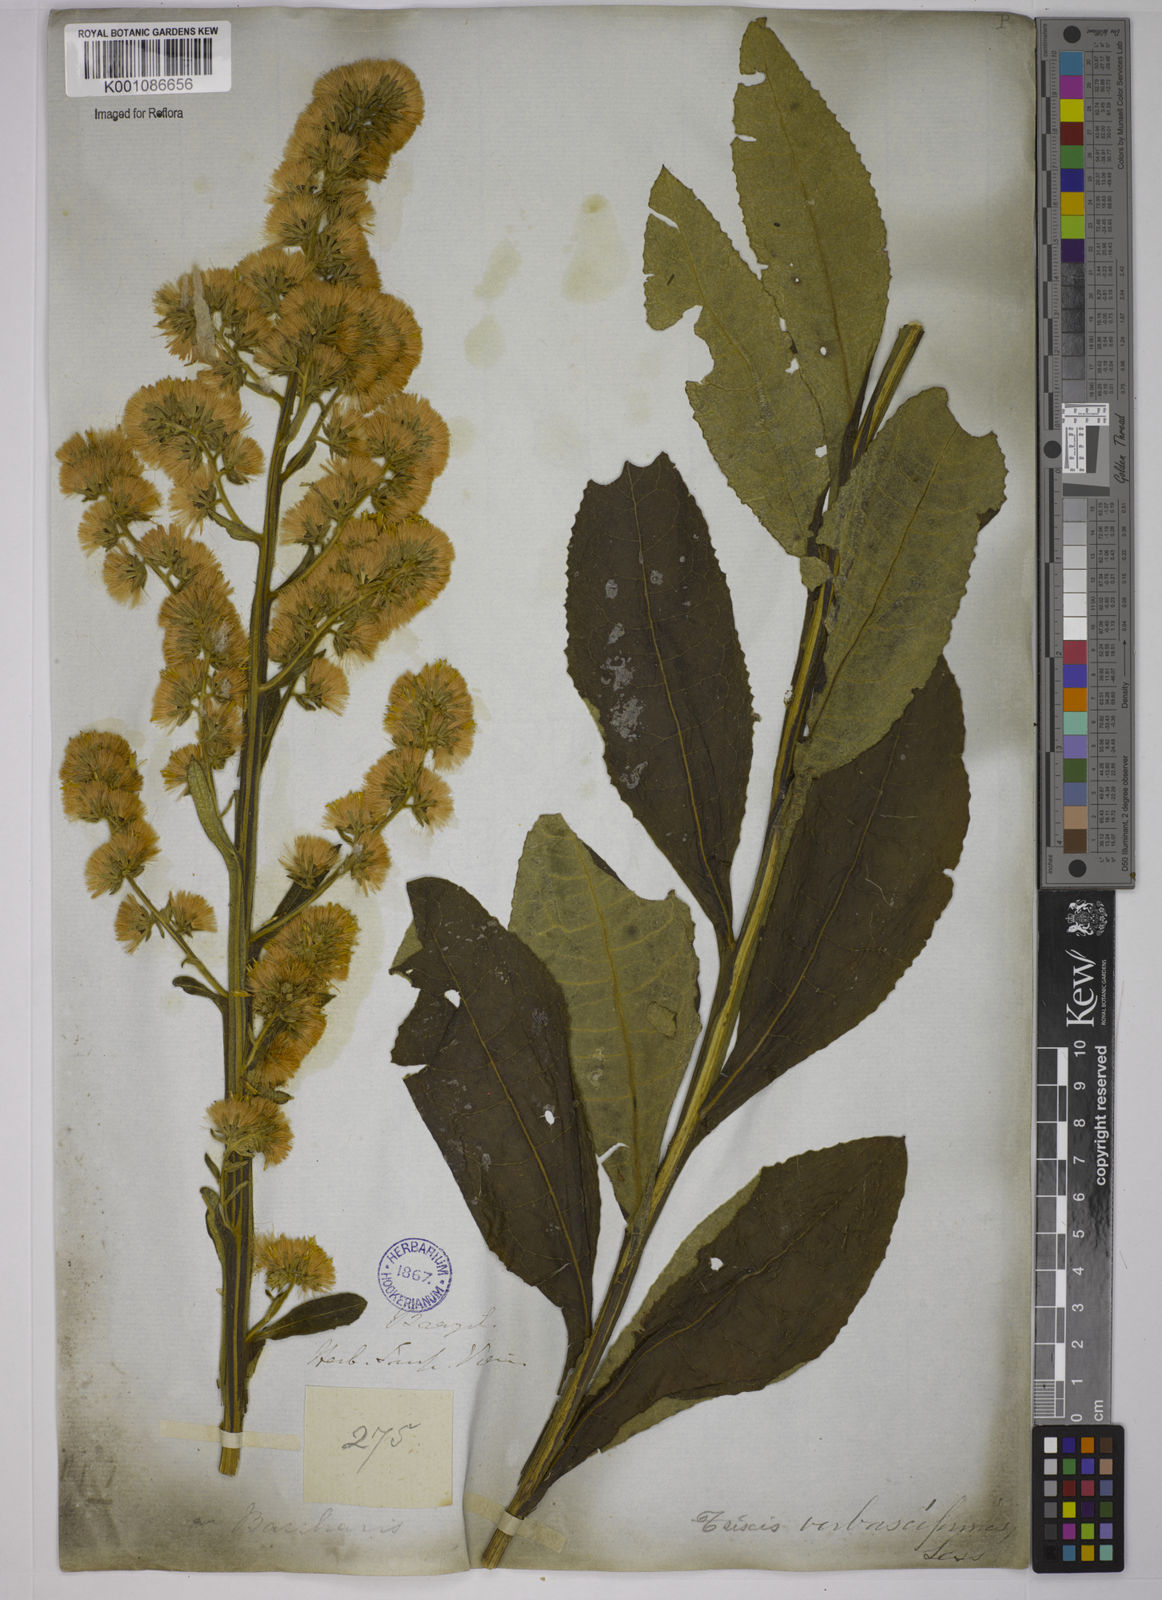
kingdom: Plantae
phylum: Tracheophyta
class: Magnoliopsida
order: Asterales
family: Asteraceae
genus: Trixis
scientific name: Trixis nobilis
